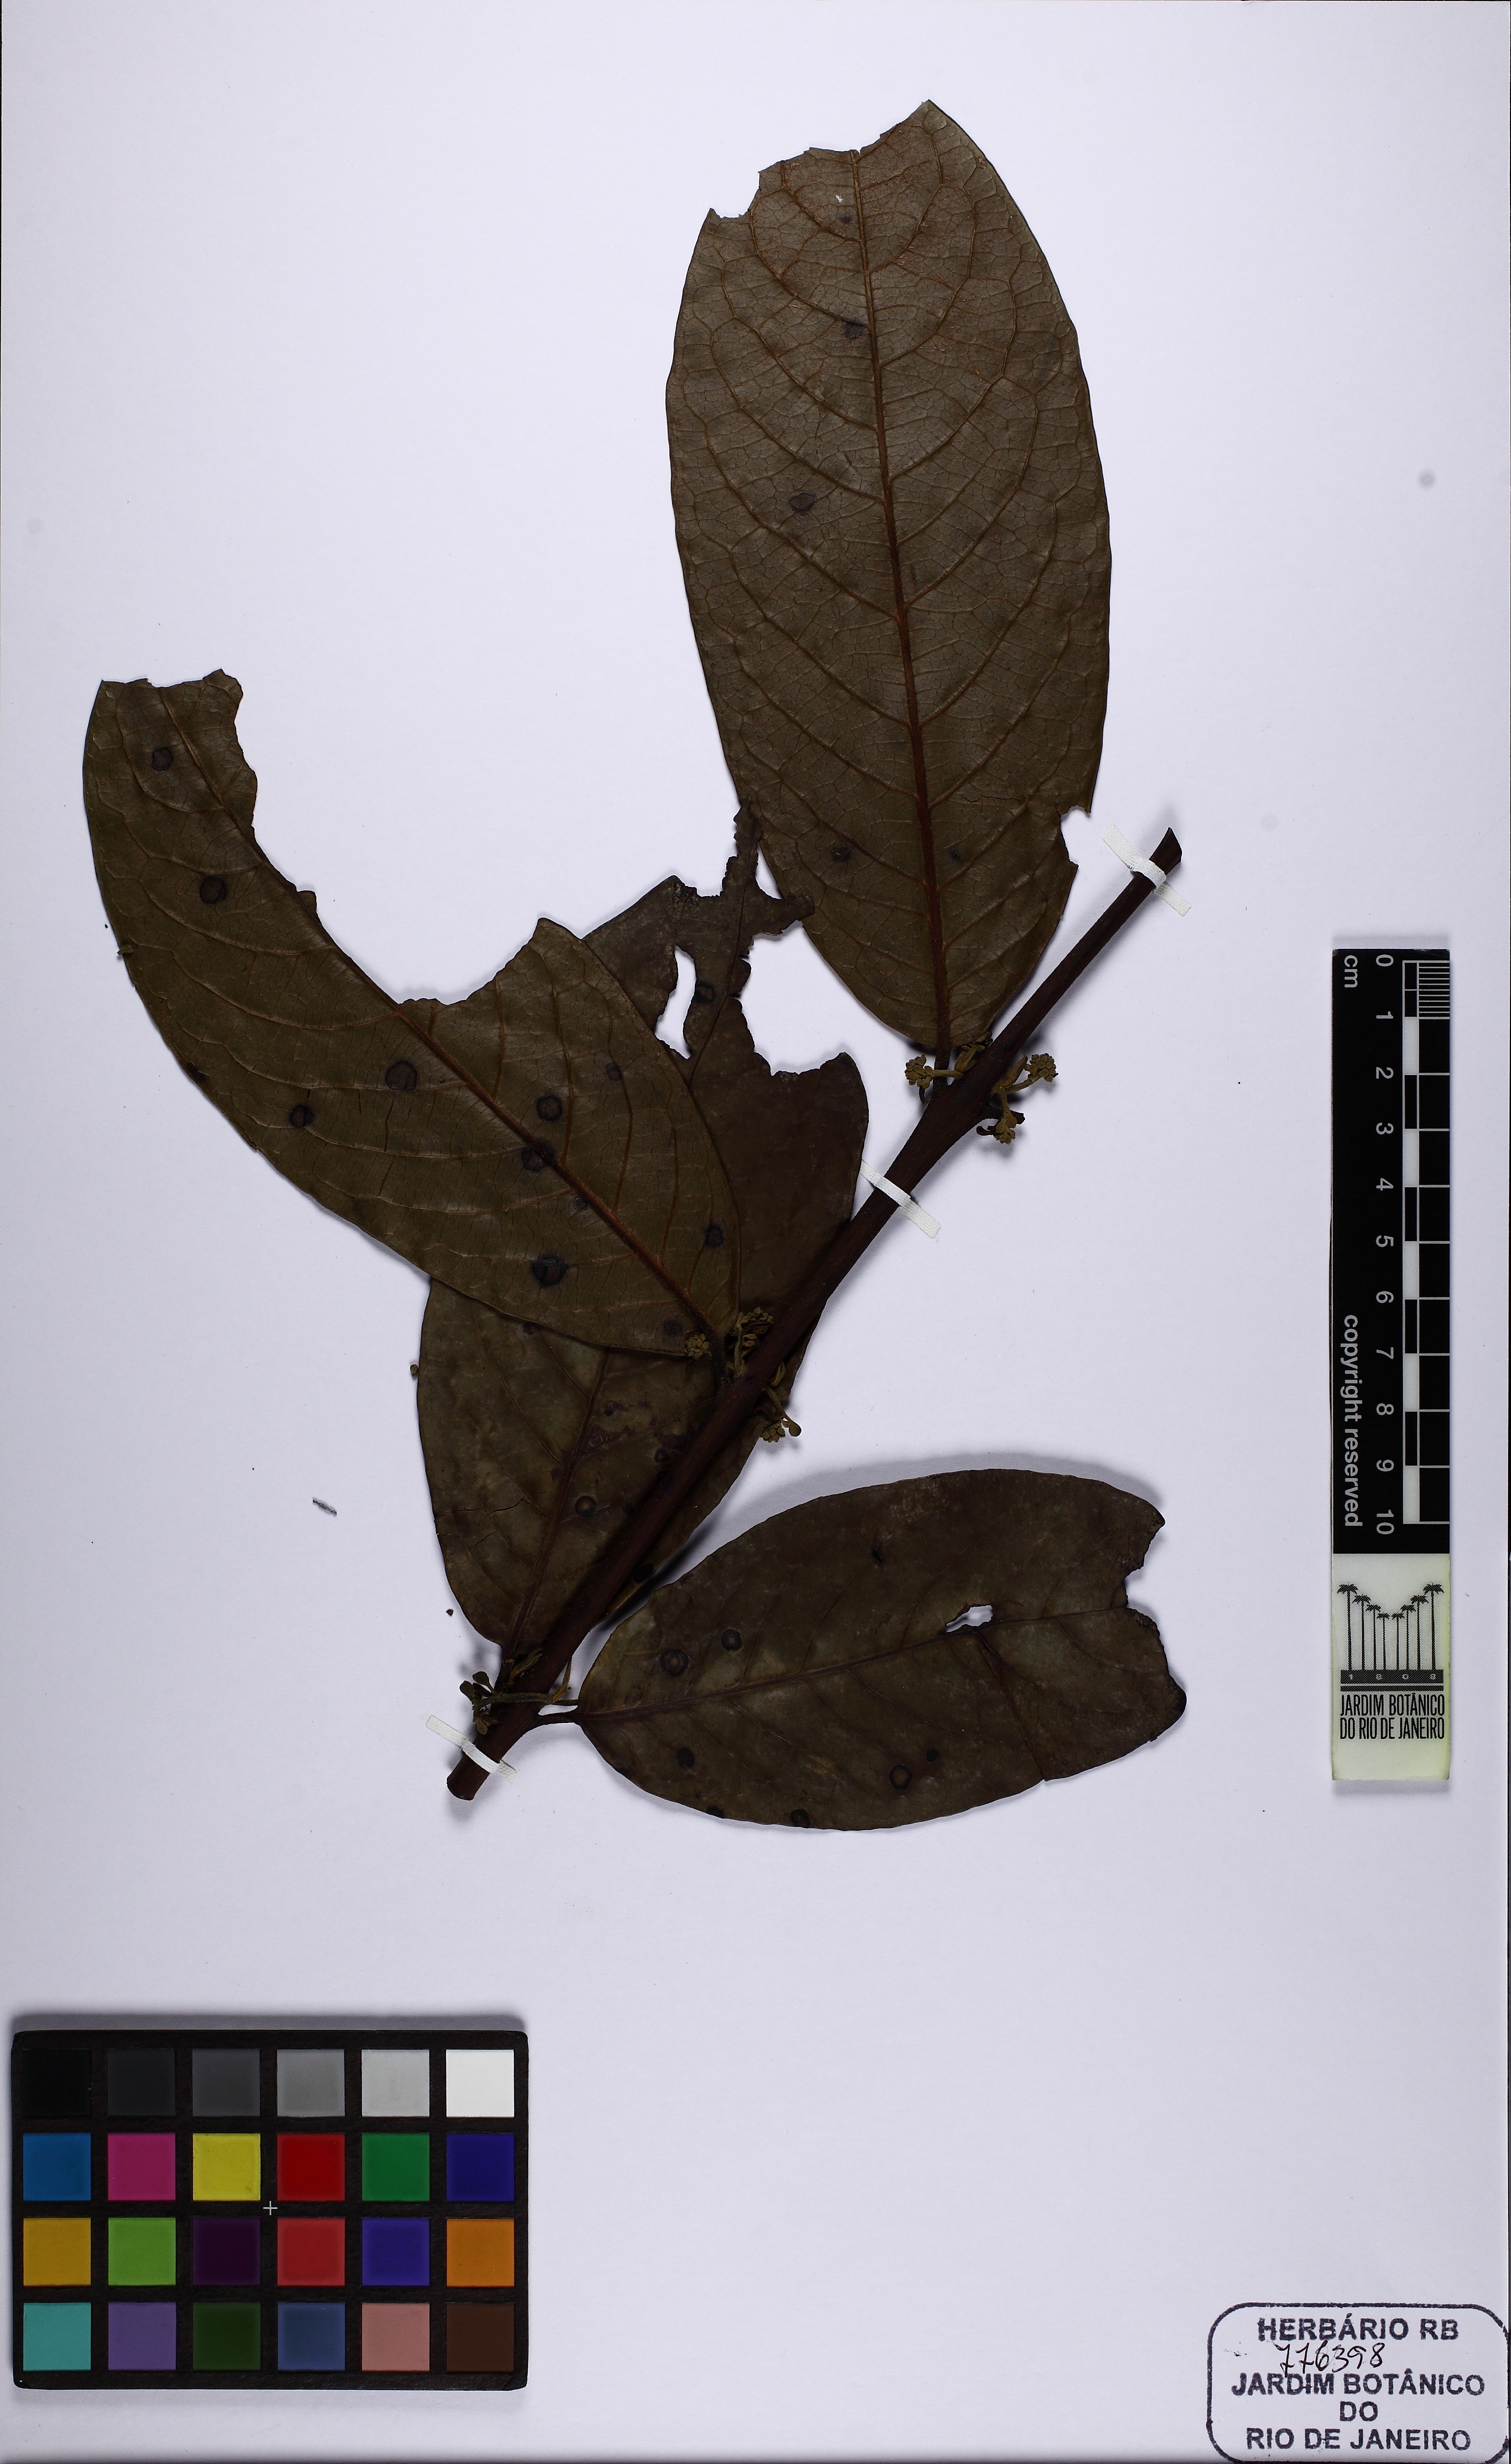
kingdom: Plantae
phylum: Tracheophyta
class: Magnoliopsida
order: Laurales
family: Siparunaceae
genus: Siparuna
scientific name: Siparuna guianensis
